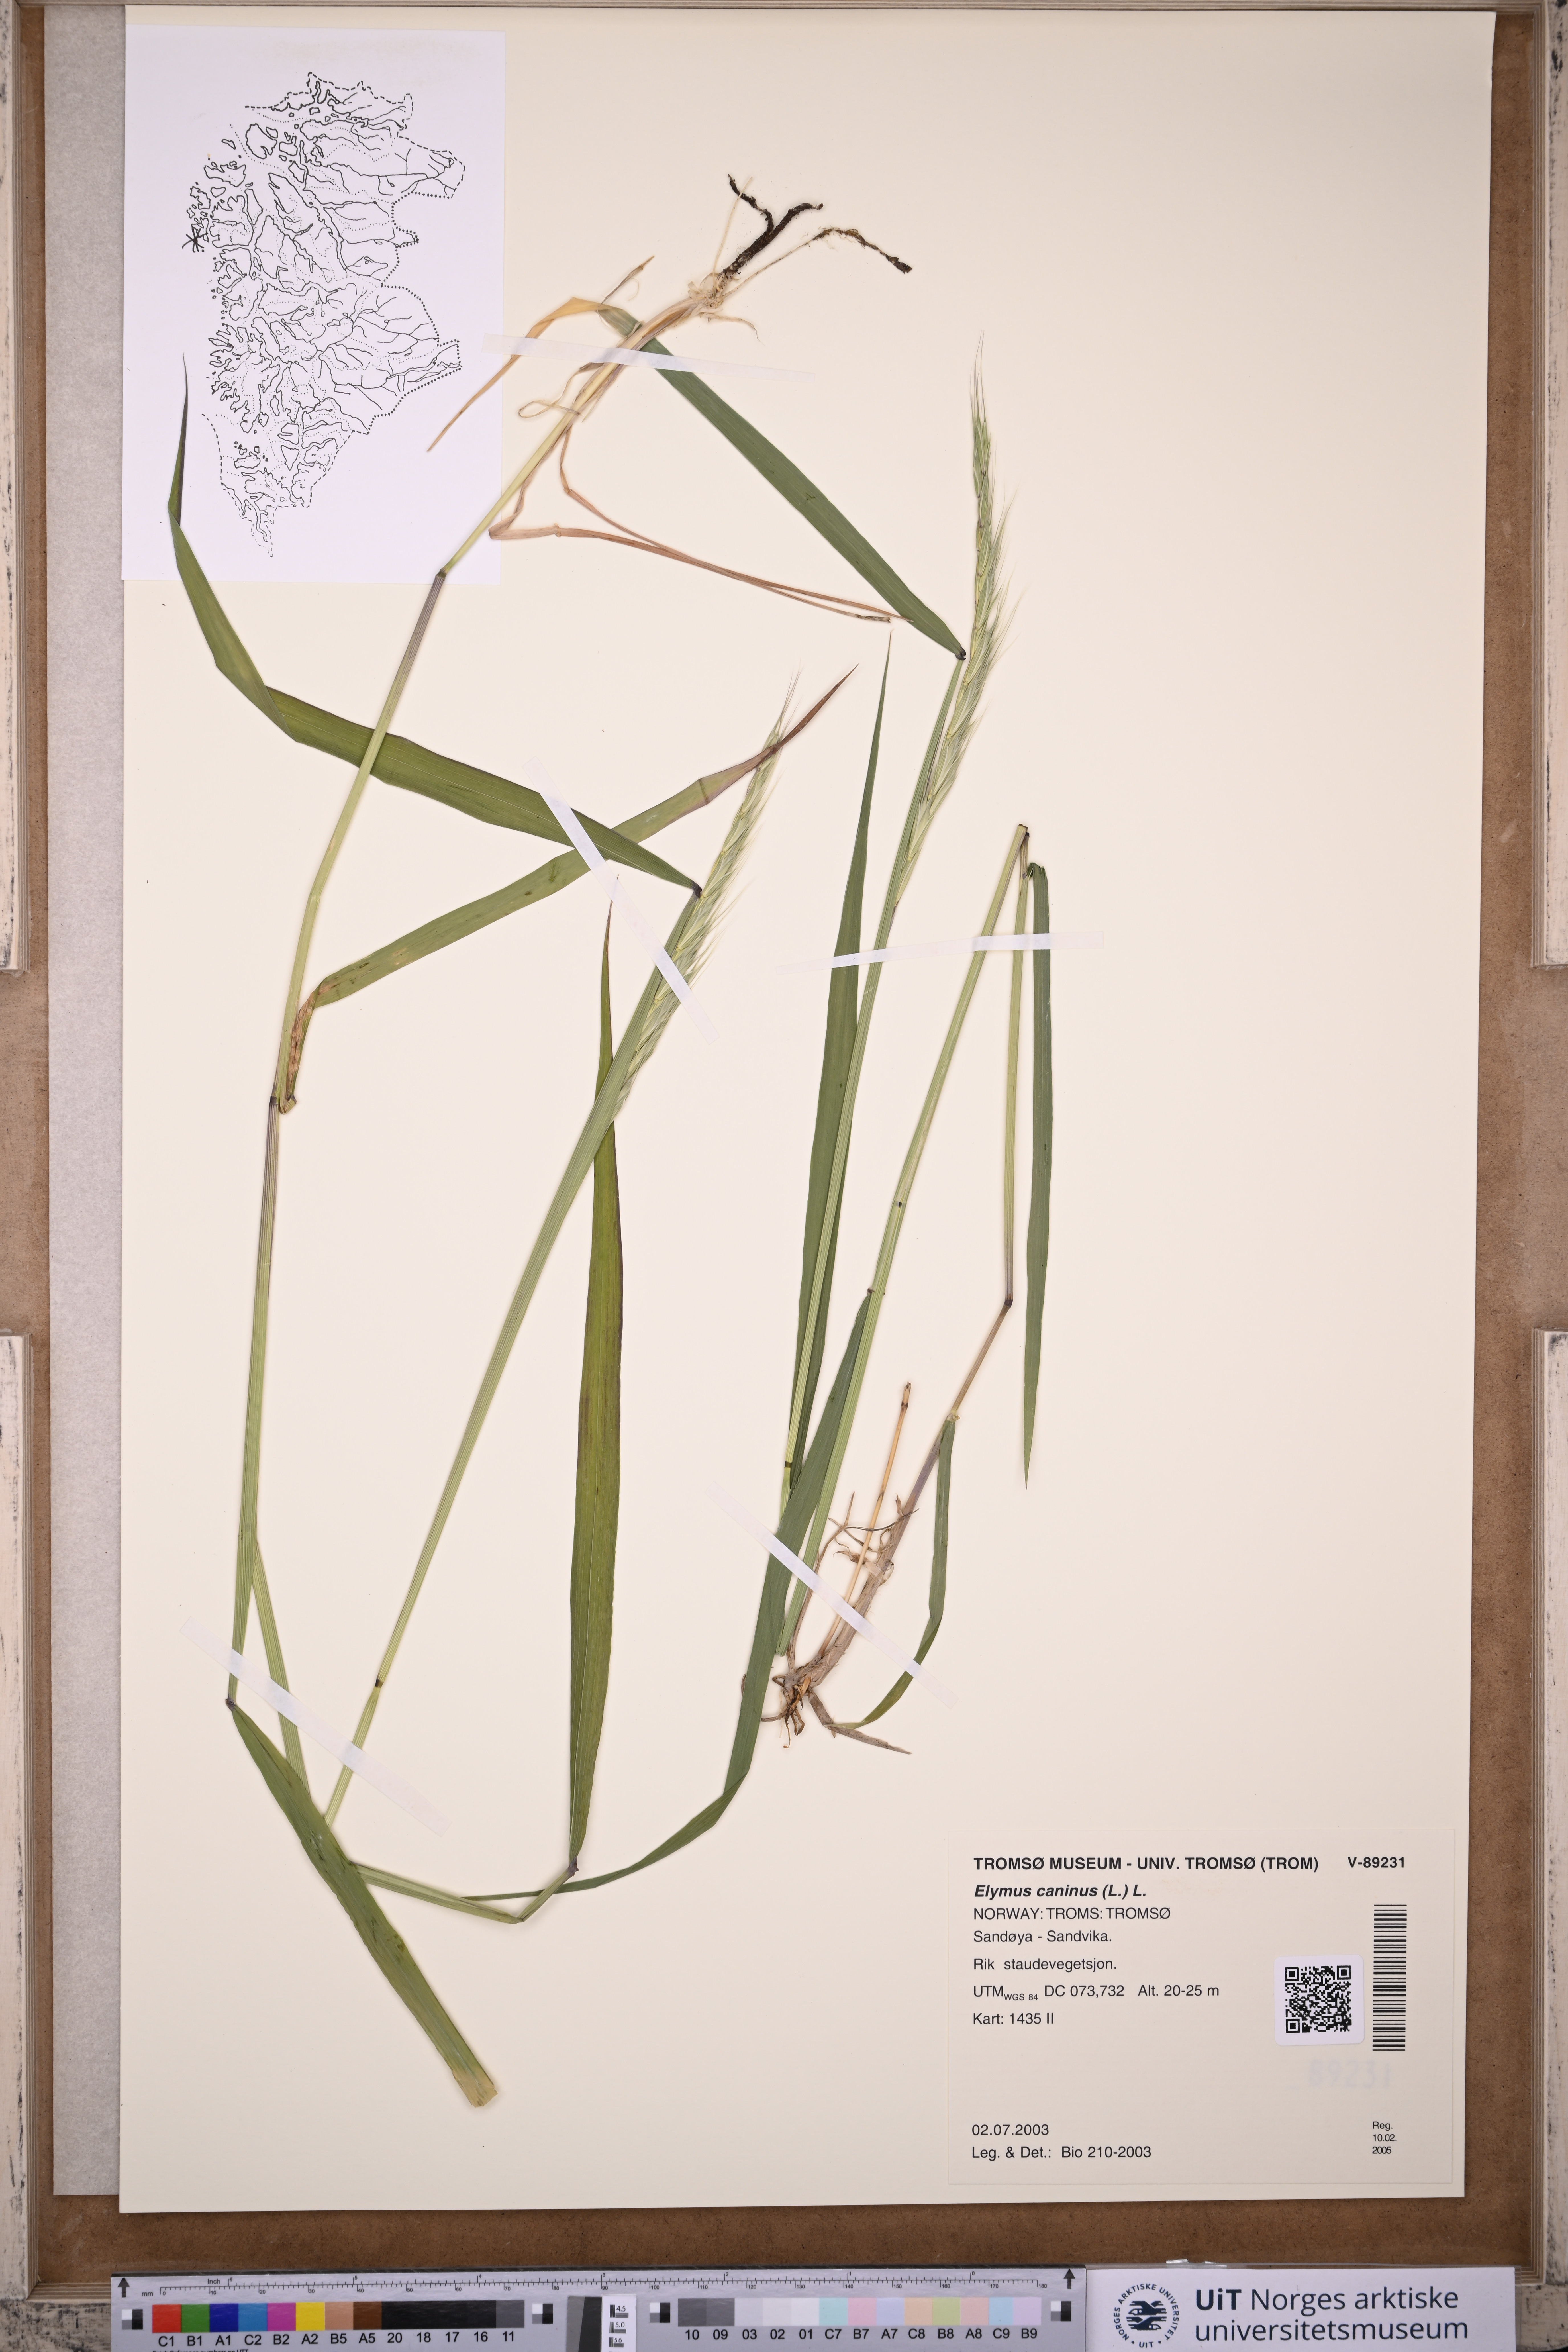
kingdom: Plantae
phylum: Tracheophyta
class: Liliopsida
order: Poales
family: Poaceae
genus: Elymus
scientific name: Elymus caninus
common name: Bearded couch
